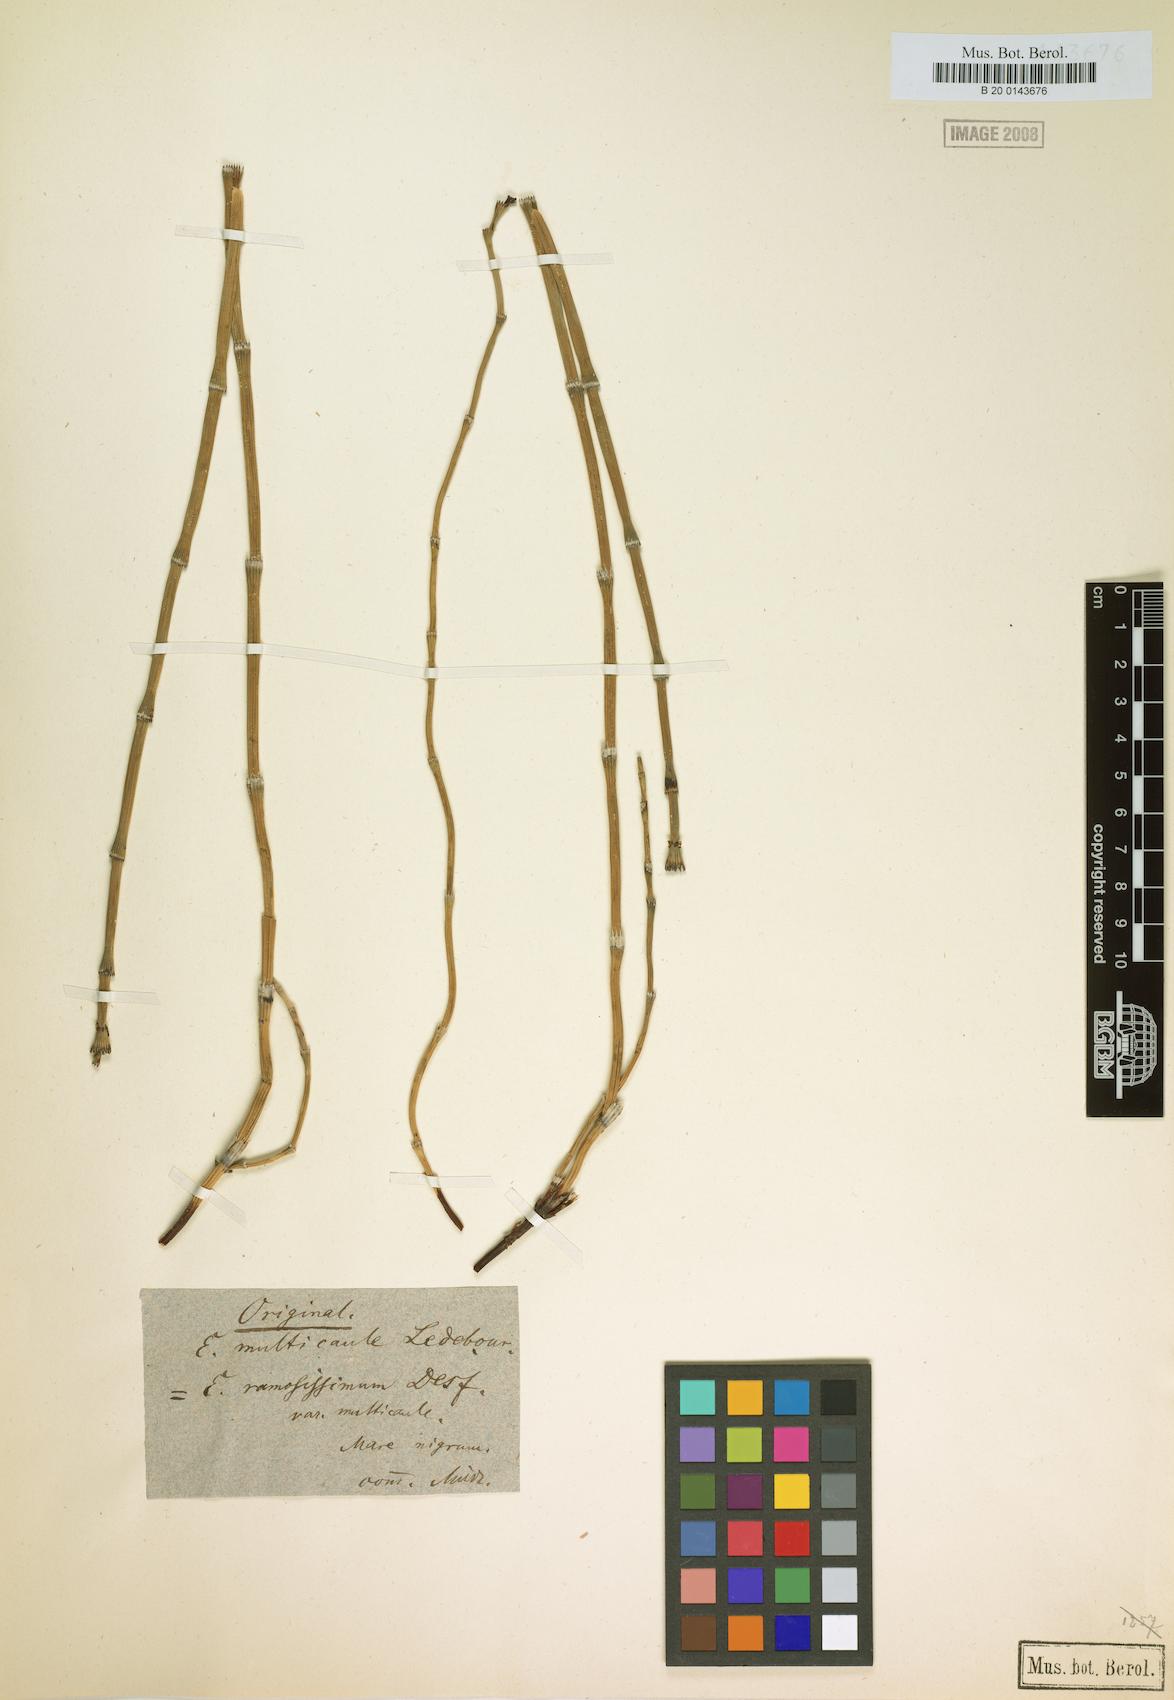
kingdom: Plantae
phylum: Tracheophyta
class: Polypodiopsida
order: Equisetales
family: Equisetaceae
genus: Equisetum
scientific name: Equisetum ramosissimum
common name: Branched horsetail
